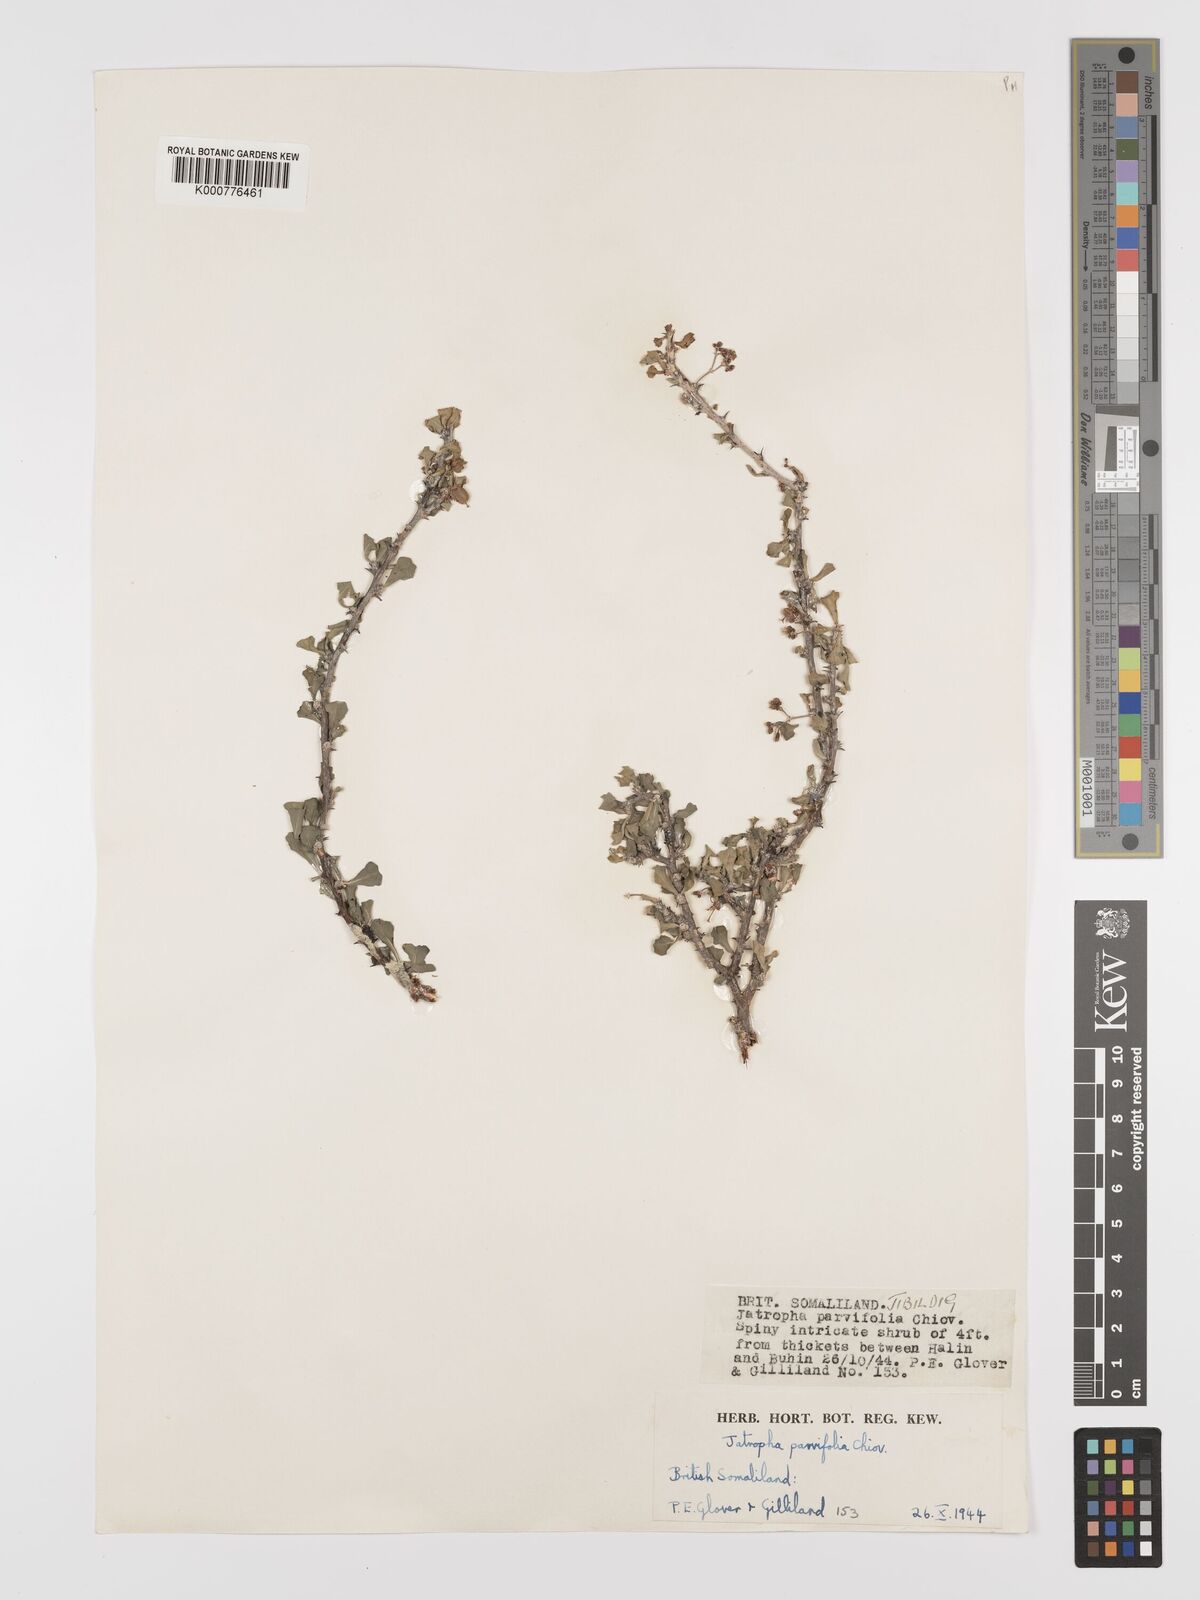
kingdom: Plantae
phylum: Tracheophyta
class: Magnoliopsida
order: Malpighiales
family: Euphorbiaceae
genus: Jatropha
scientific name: Jatropha rivae
